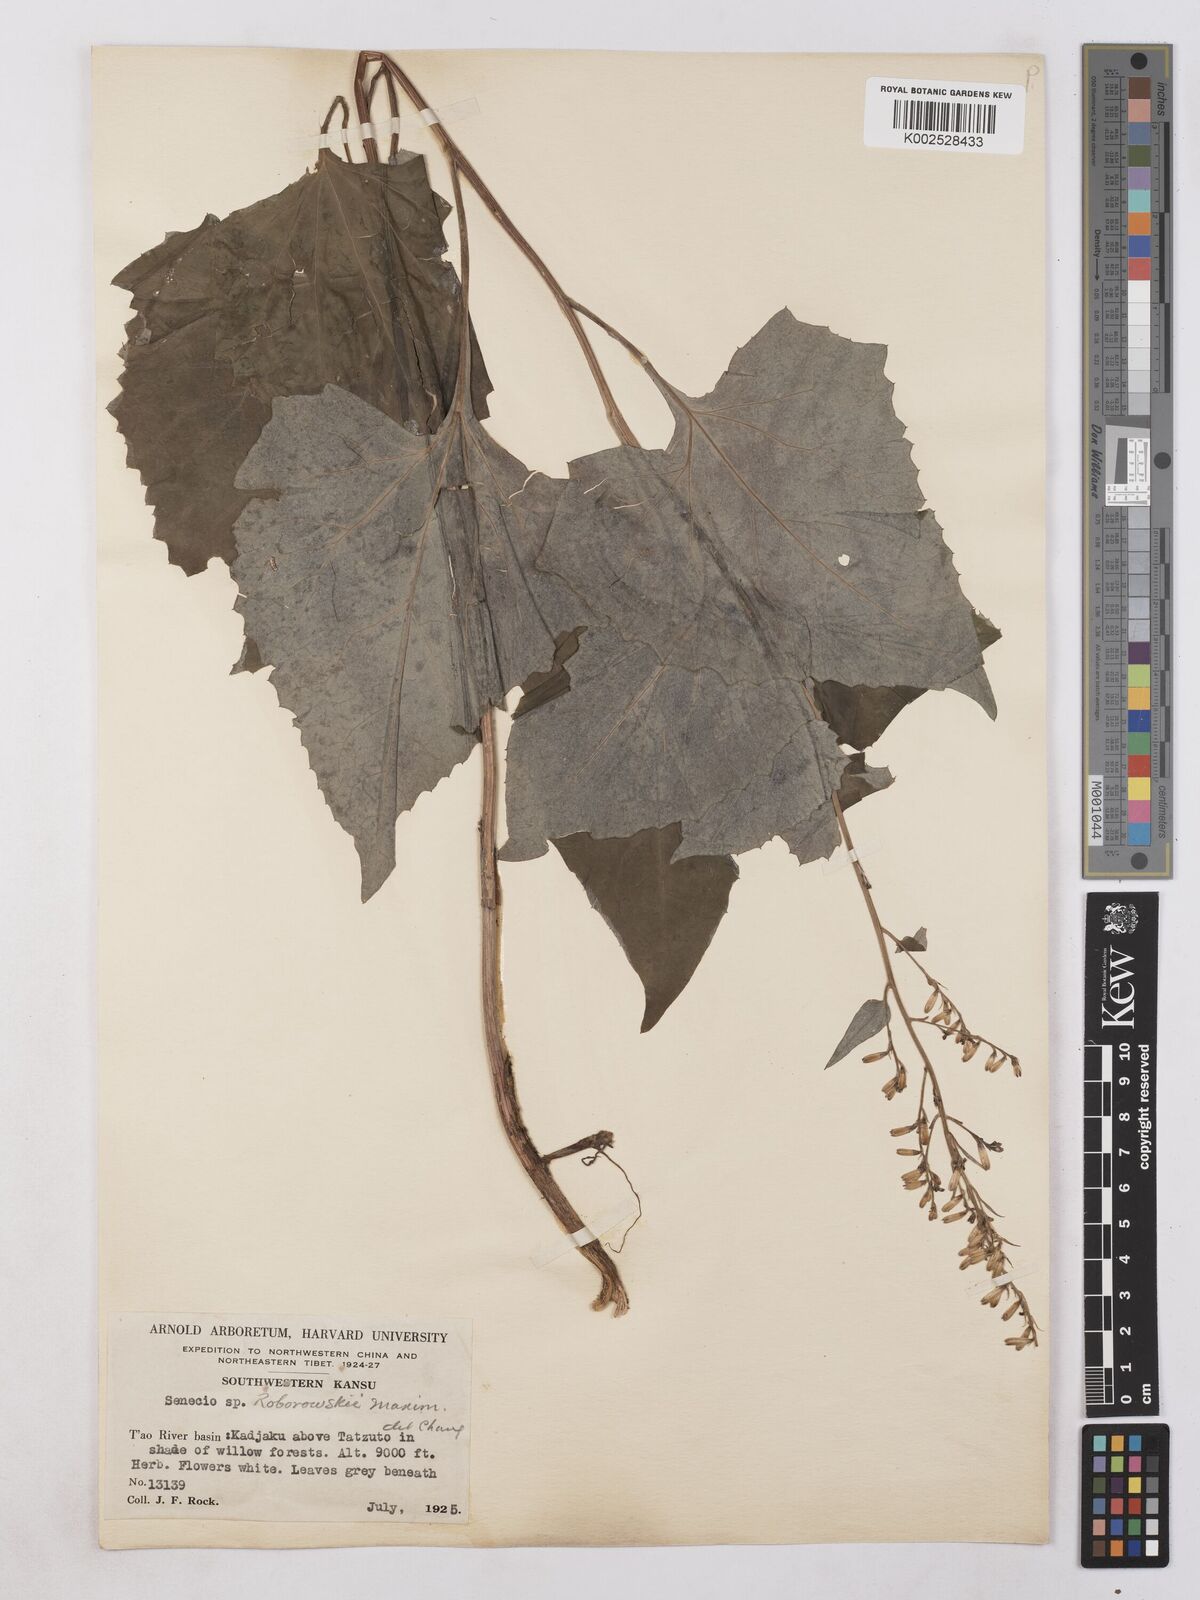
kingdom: Plantae
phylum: Tracheophyta
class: Magnoliopsida
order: Asterales
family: Asteraceae
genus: Parasenecio
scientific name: Parasenecio roborowskii
